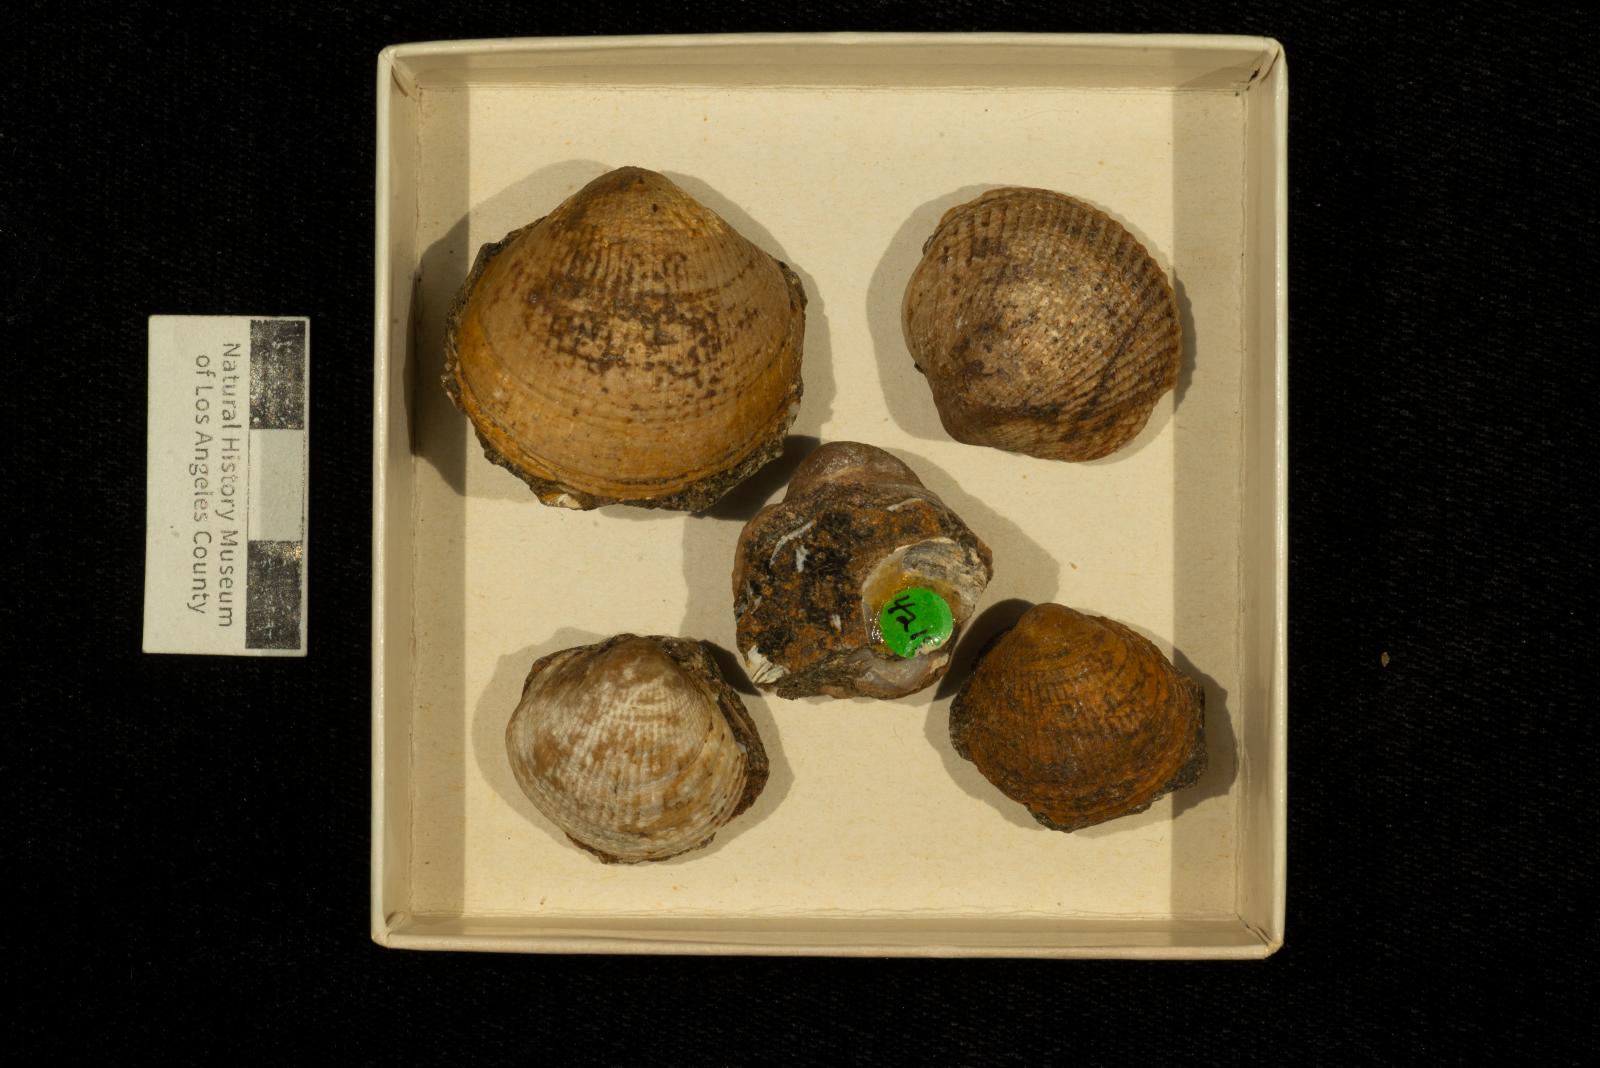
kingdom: Animalia
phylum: Mollusca
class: Bivalvia
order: Arcida
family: Glycymerididae
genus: Glycymerita
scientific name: Glycymerita Axinaea veatchii
